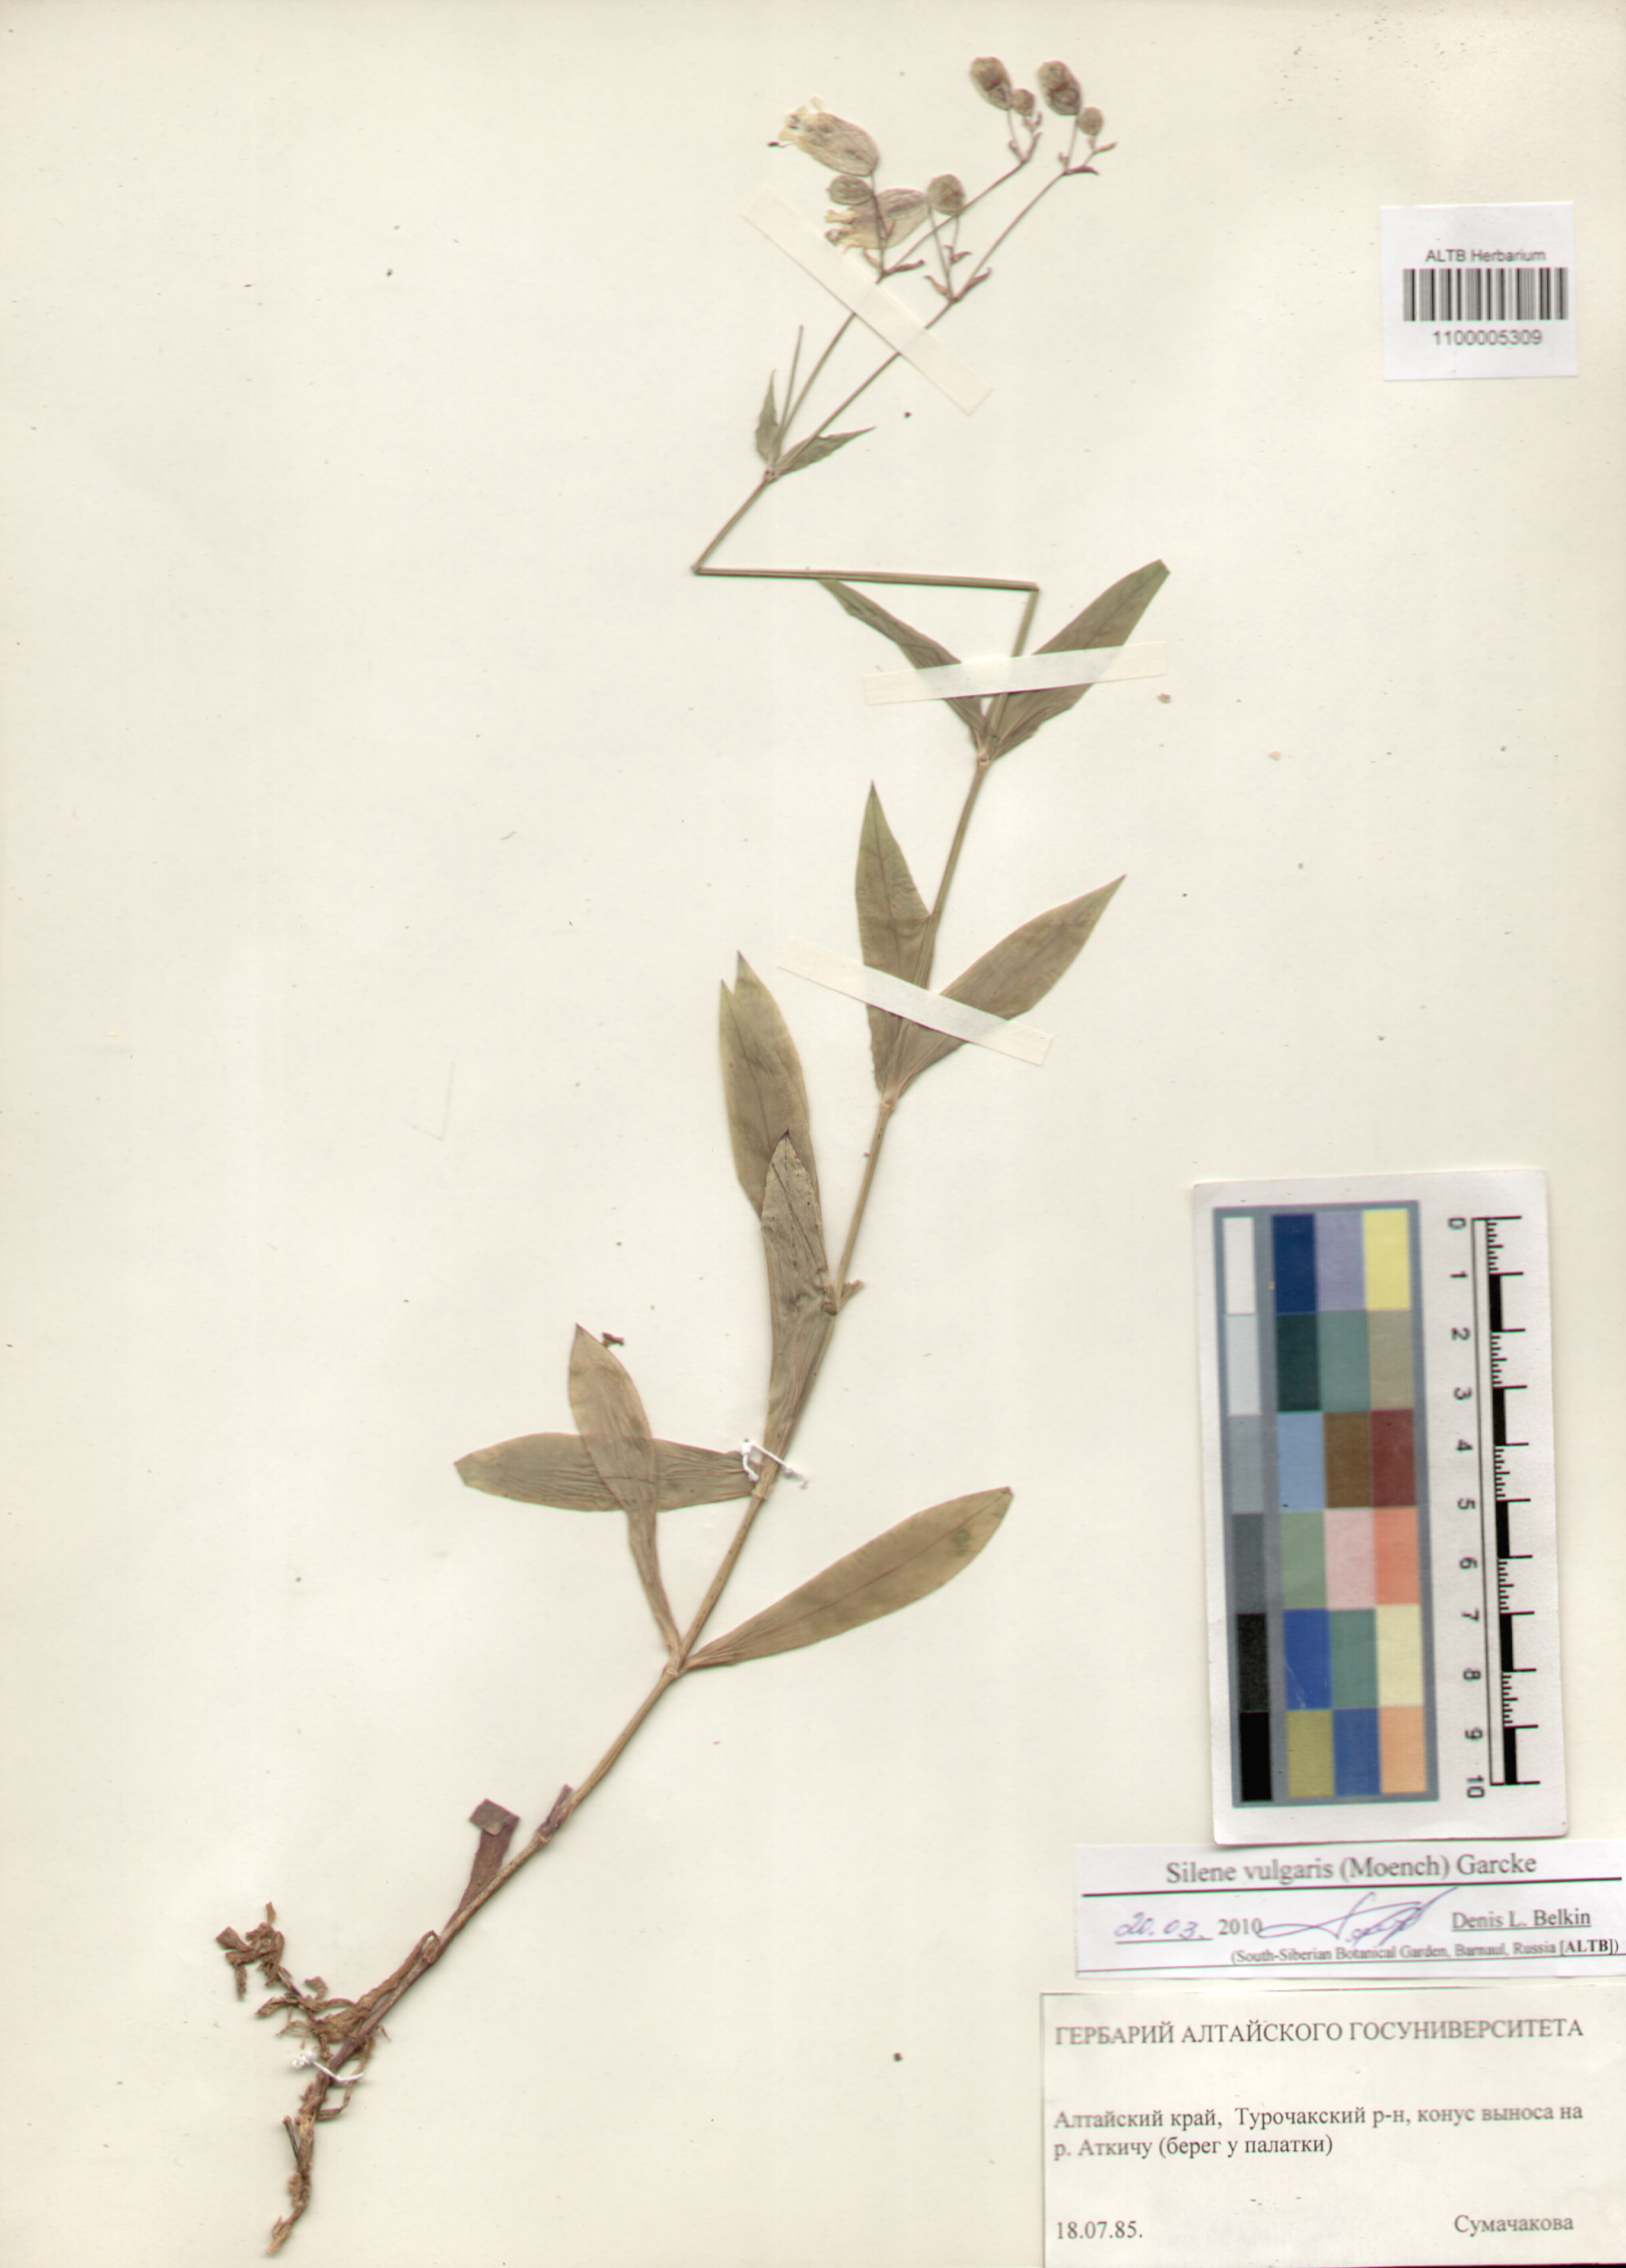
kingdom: Plantae
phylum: Tracheophyta
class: Magnoliopsida
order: Caryophyllales
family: Caryophyllaceae
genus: Silene
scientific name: Silene vulgaris
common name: Bladder campion
